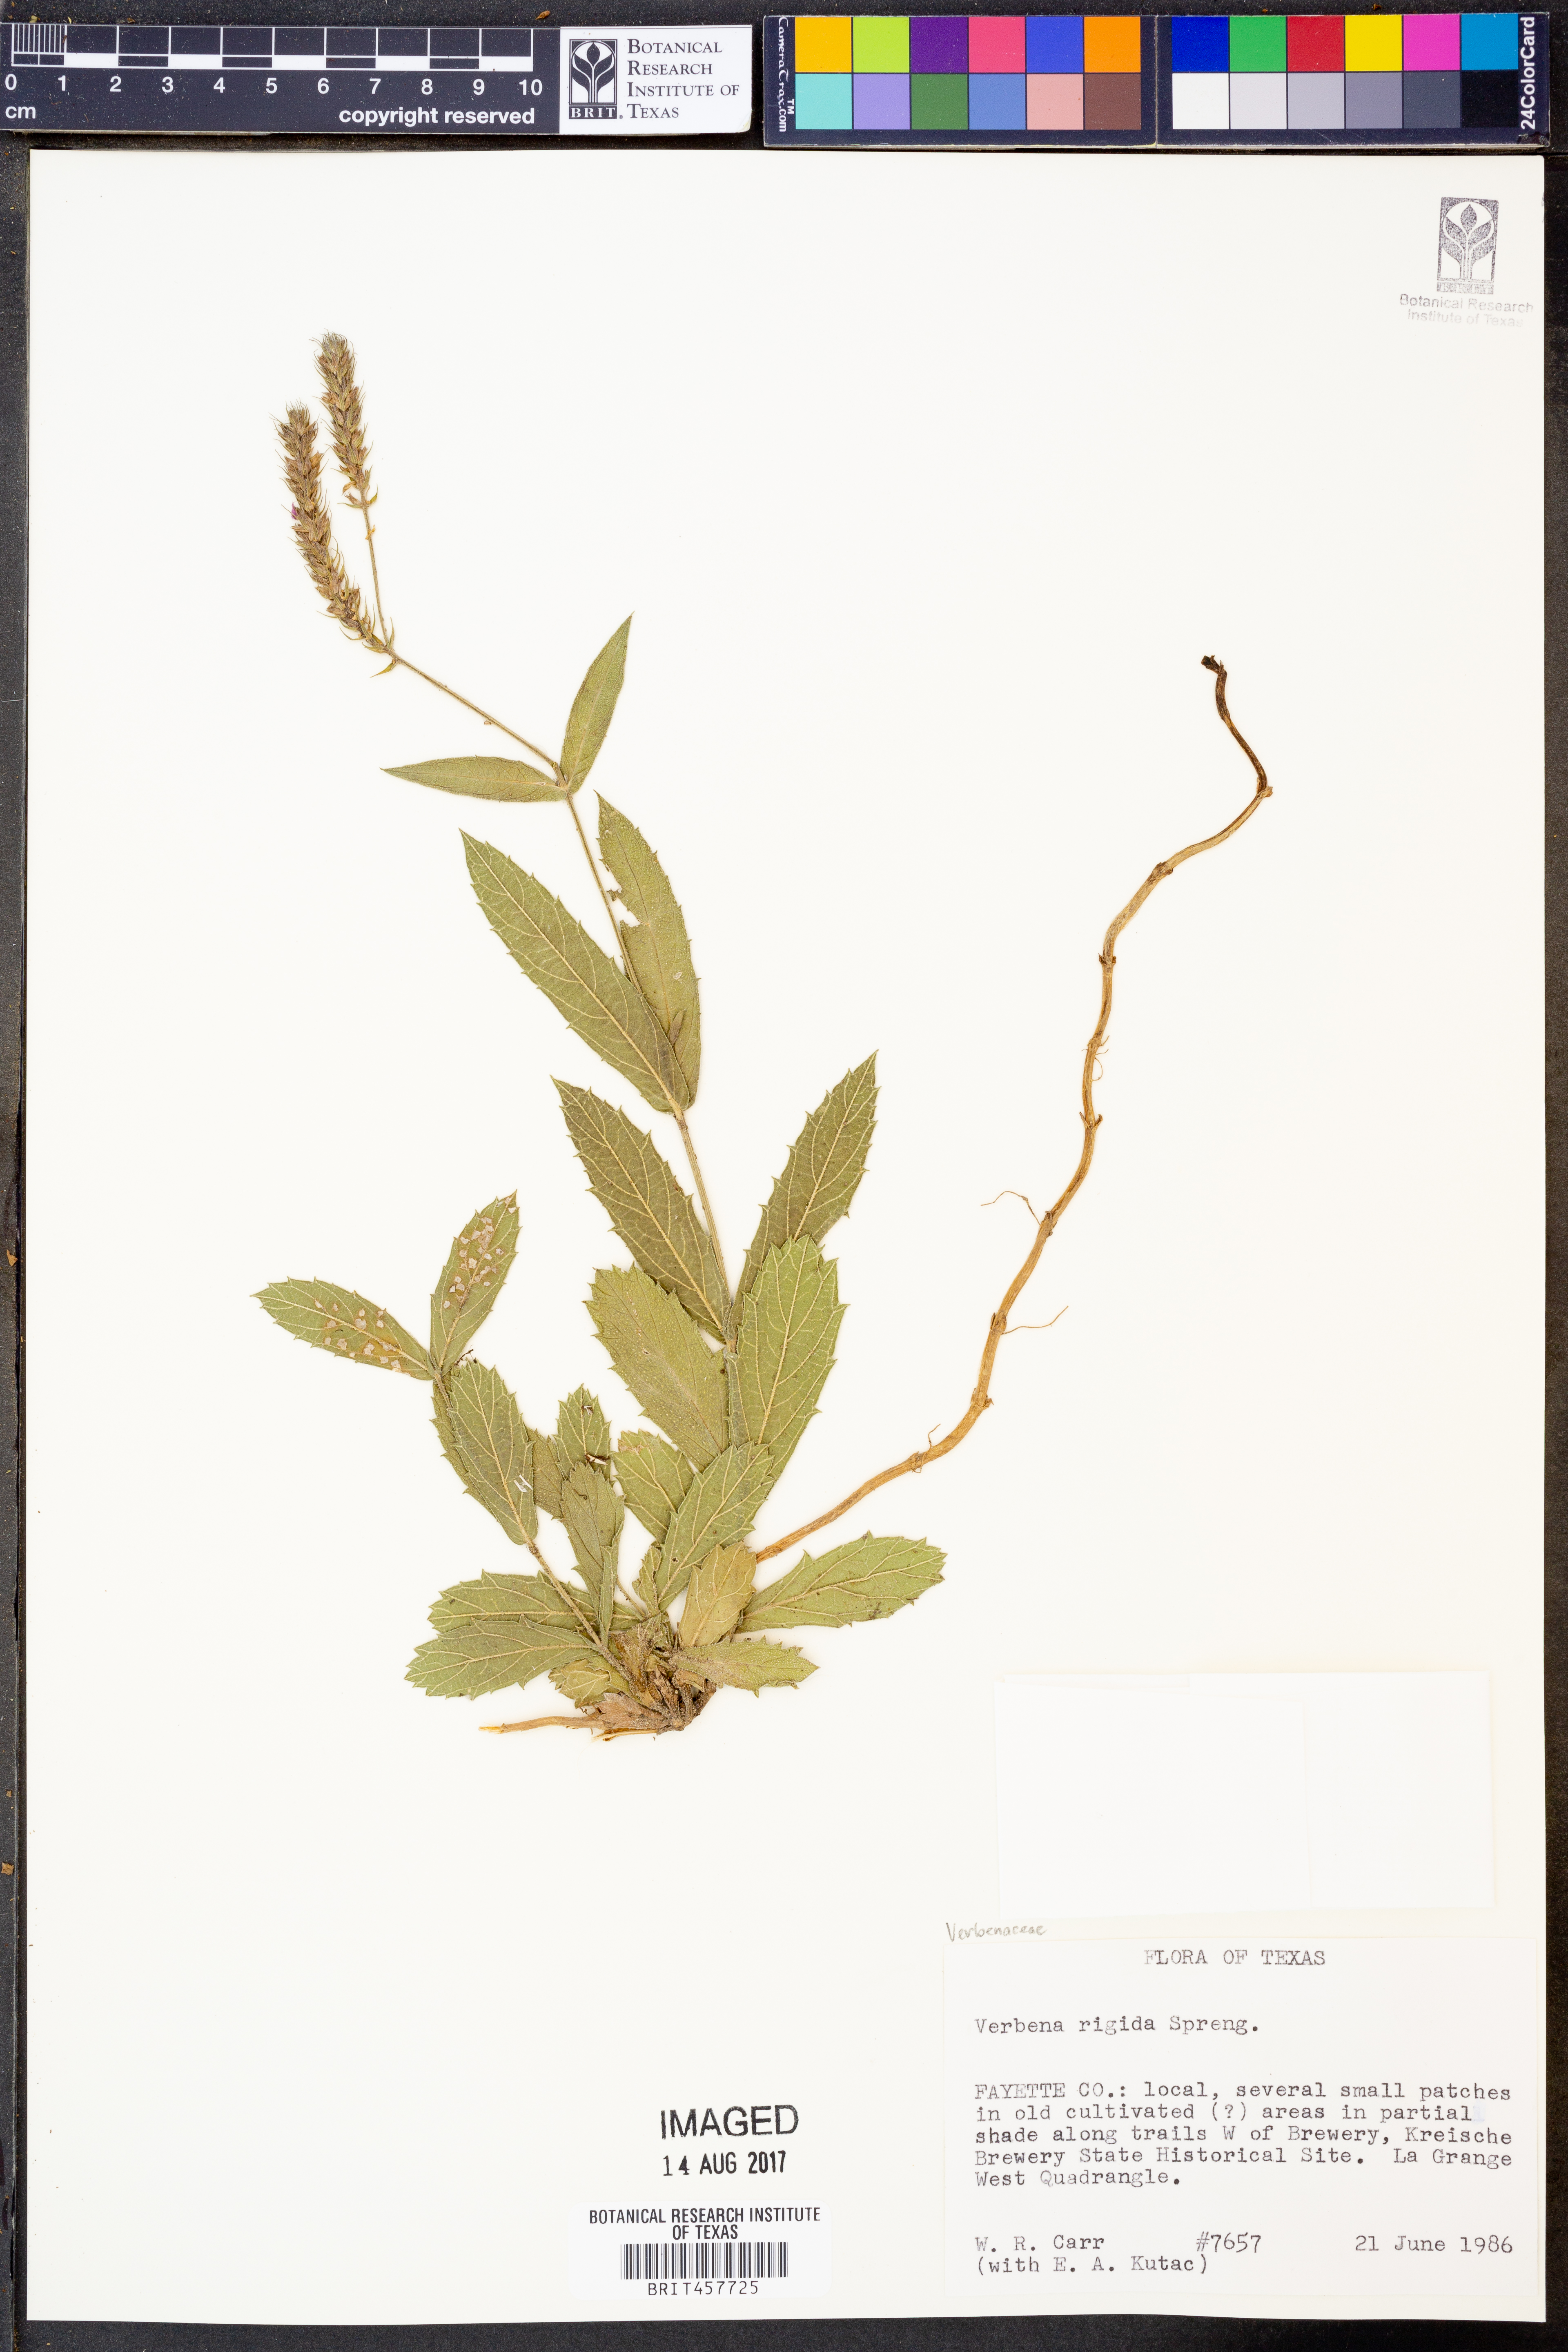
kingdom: Plantae
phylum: Tracheophyta
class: Magnoliopsida
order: Lamiales
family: Verbenaceae
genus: Verbena
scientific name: Verbena rigida
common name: Slender vervain
